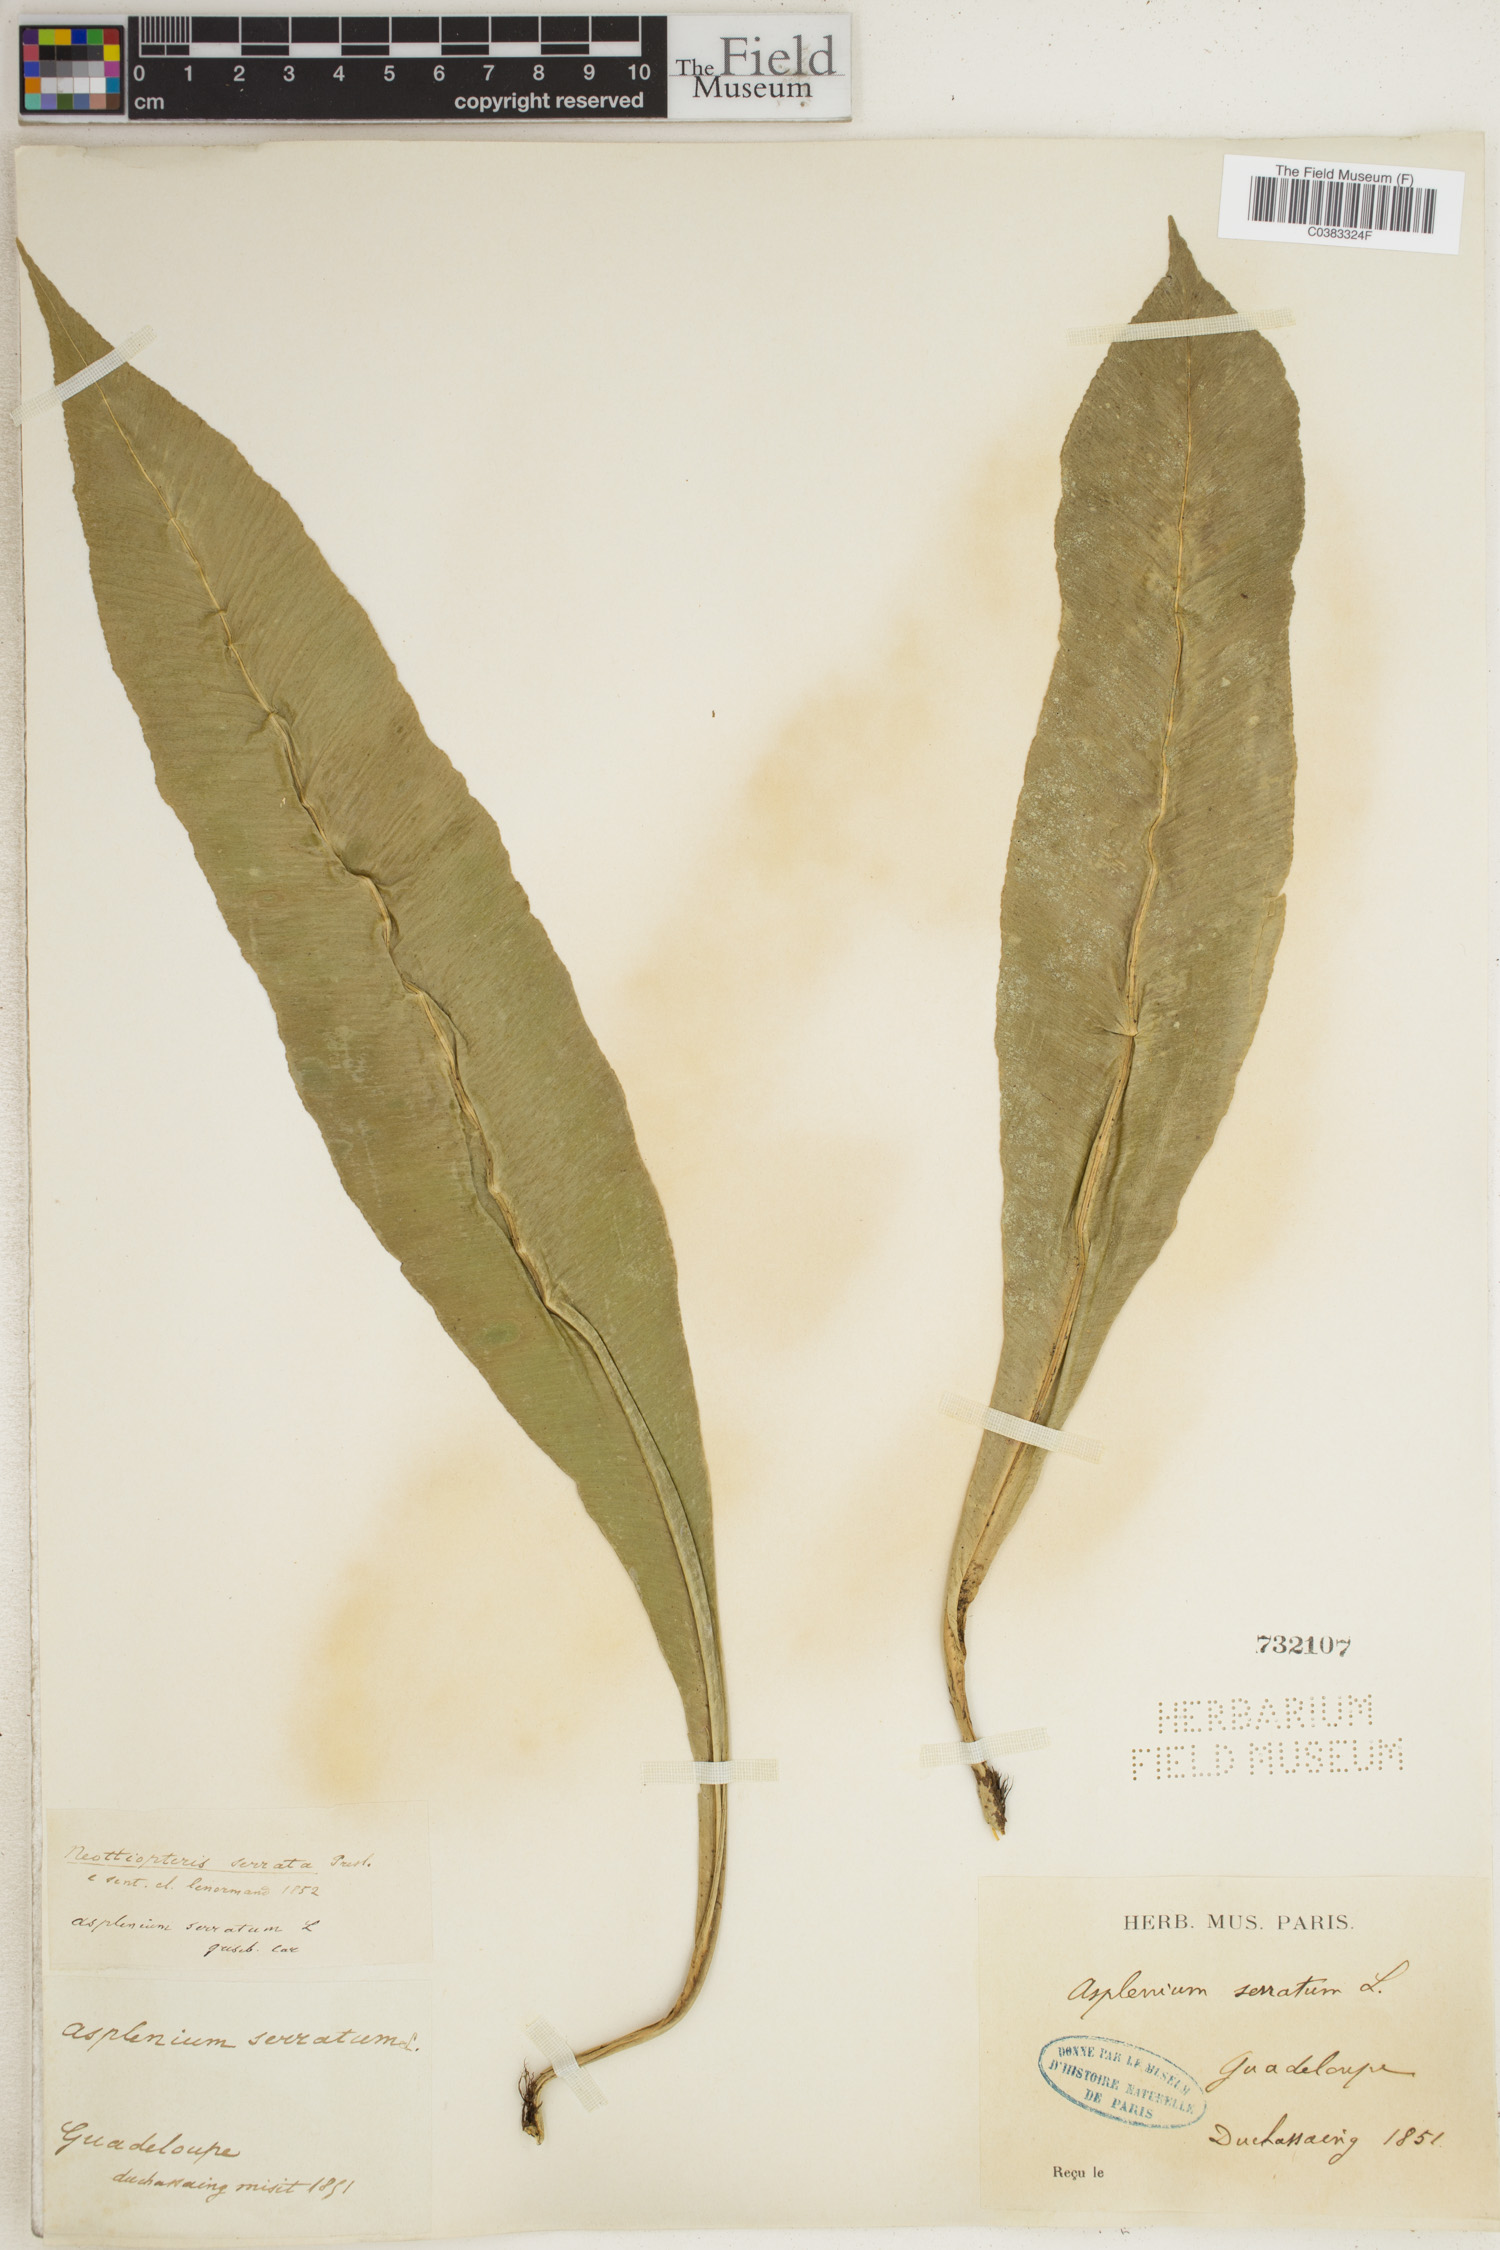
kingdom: Plantae
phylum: Tracheophyta
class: Polypodiopsida
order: Polypodiales
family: Aspleniaceae
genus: Asplenium
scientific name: Asplenium serratum
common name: Wild birdnest fern
